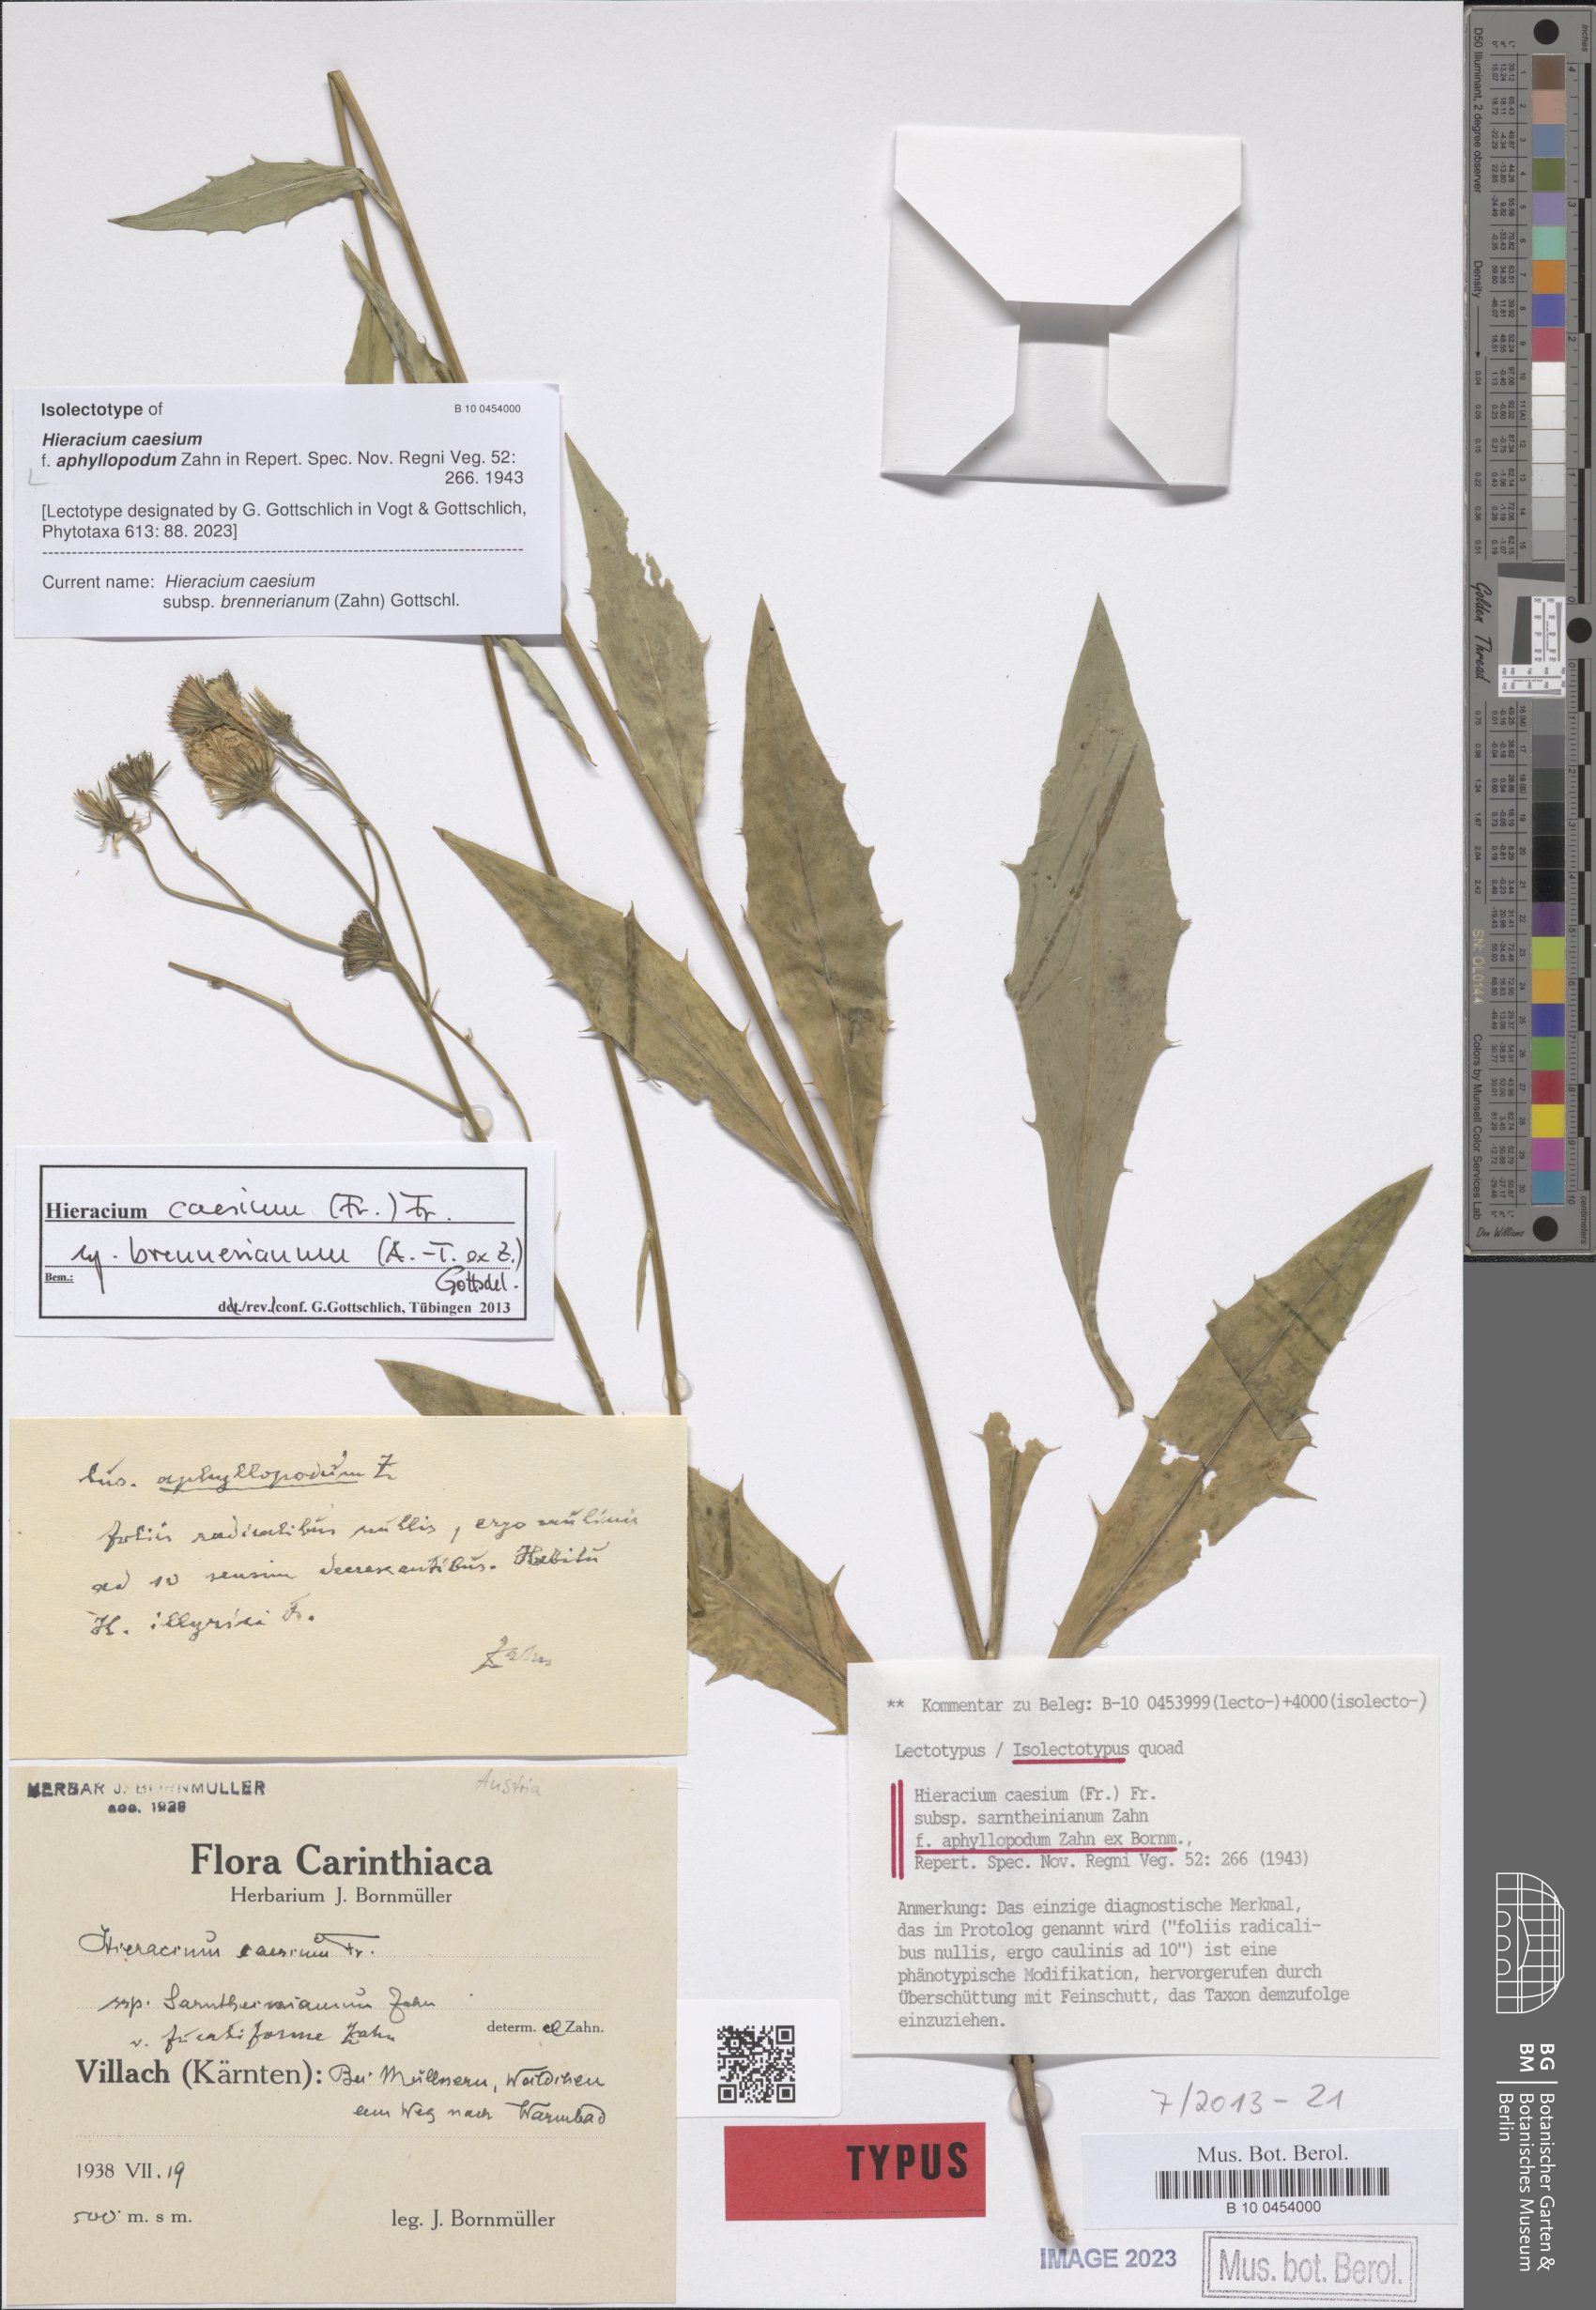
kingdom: Plantae
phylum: Tracheophyta
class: Magnoliopsida
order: Asterales
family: Asteraceae
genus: Hieracium
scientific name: Hieracium caesium
